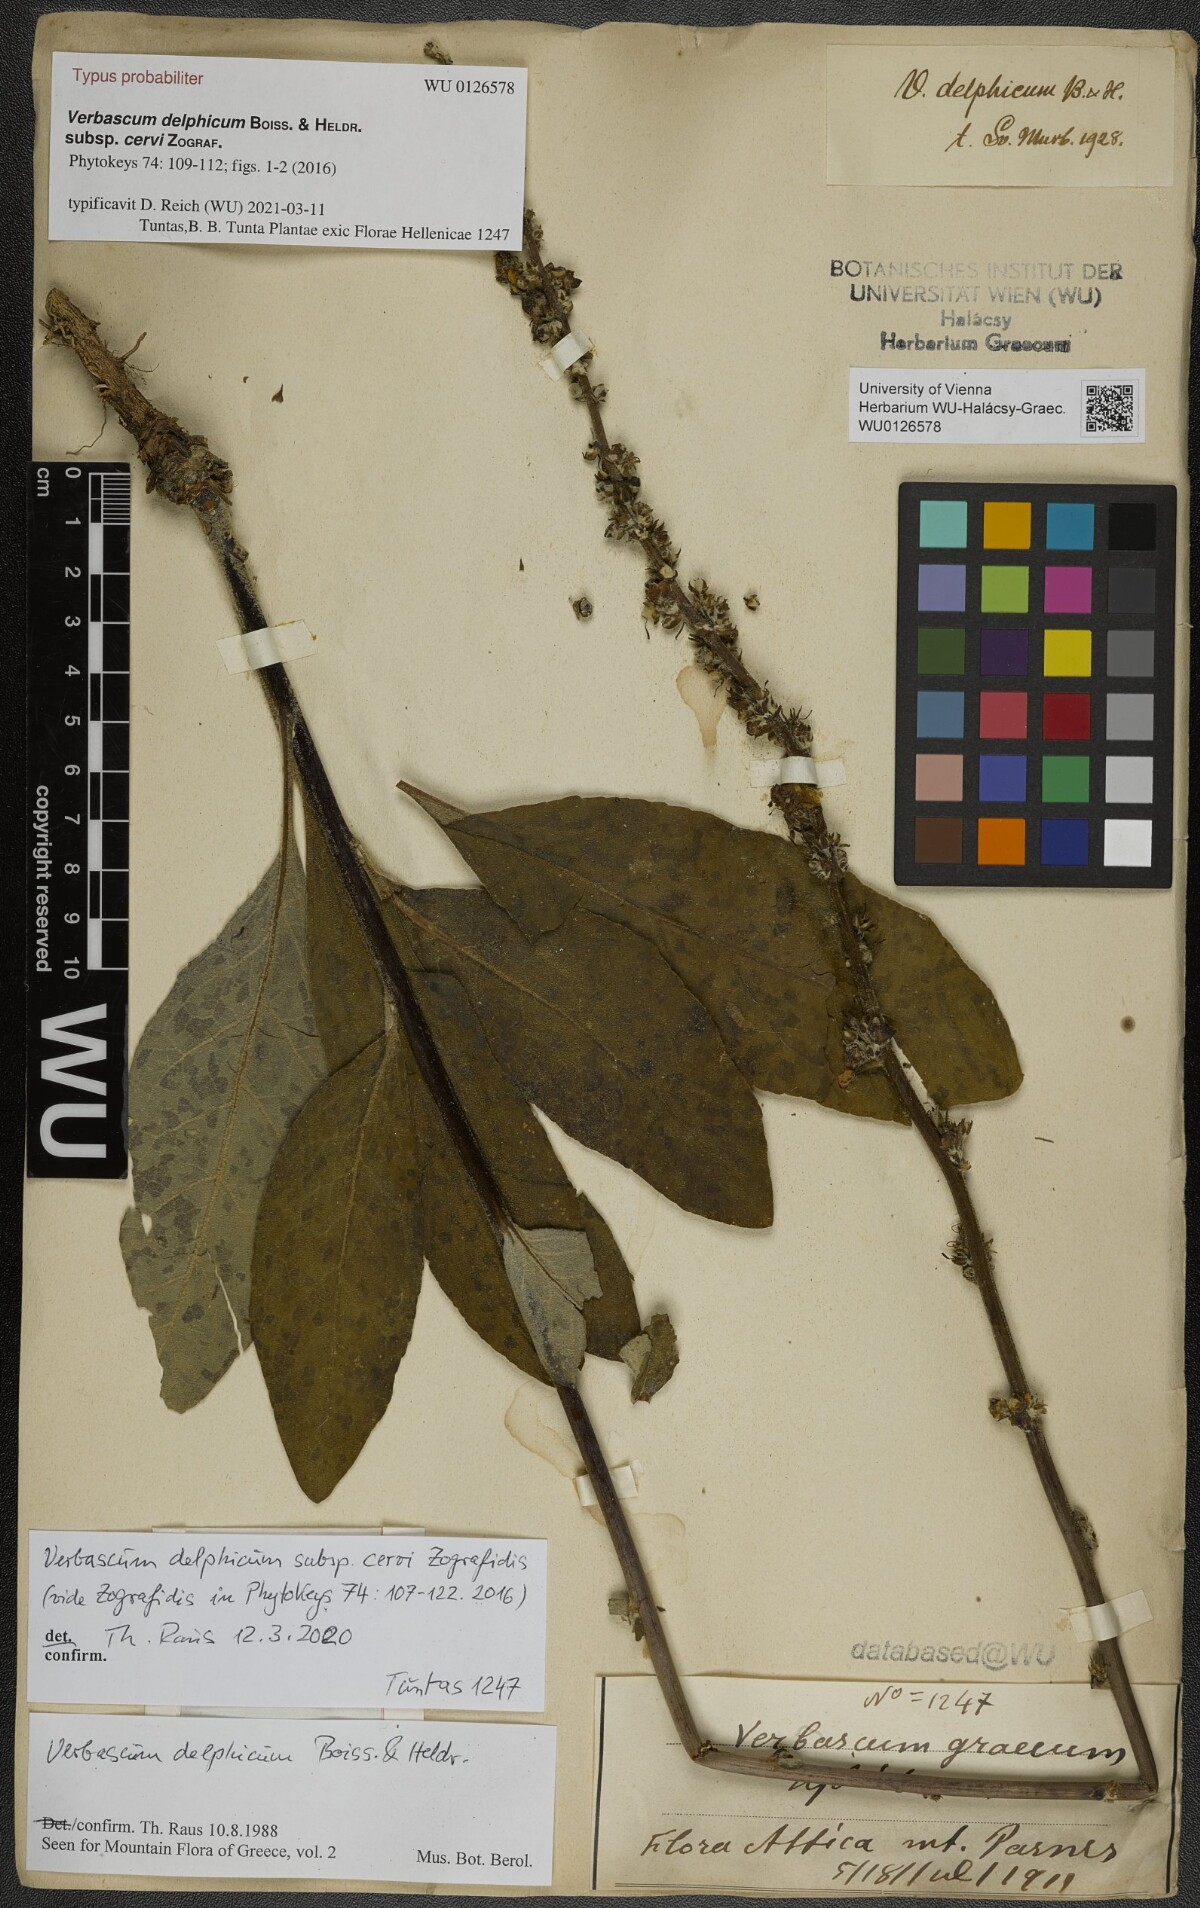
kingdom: Plantae
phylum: Tracheophyta
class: Magnoliopsida
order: Lamiales
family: Scrophulariaceae
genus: Verbascum
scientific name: Verbascum delphicum
